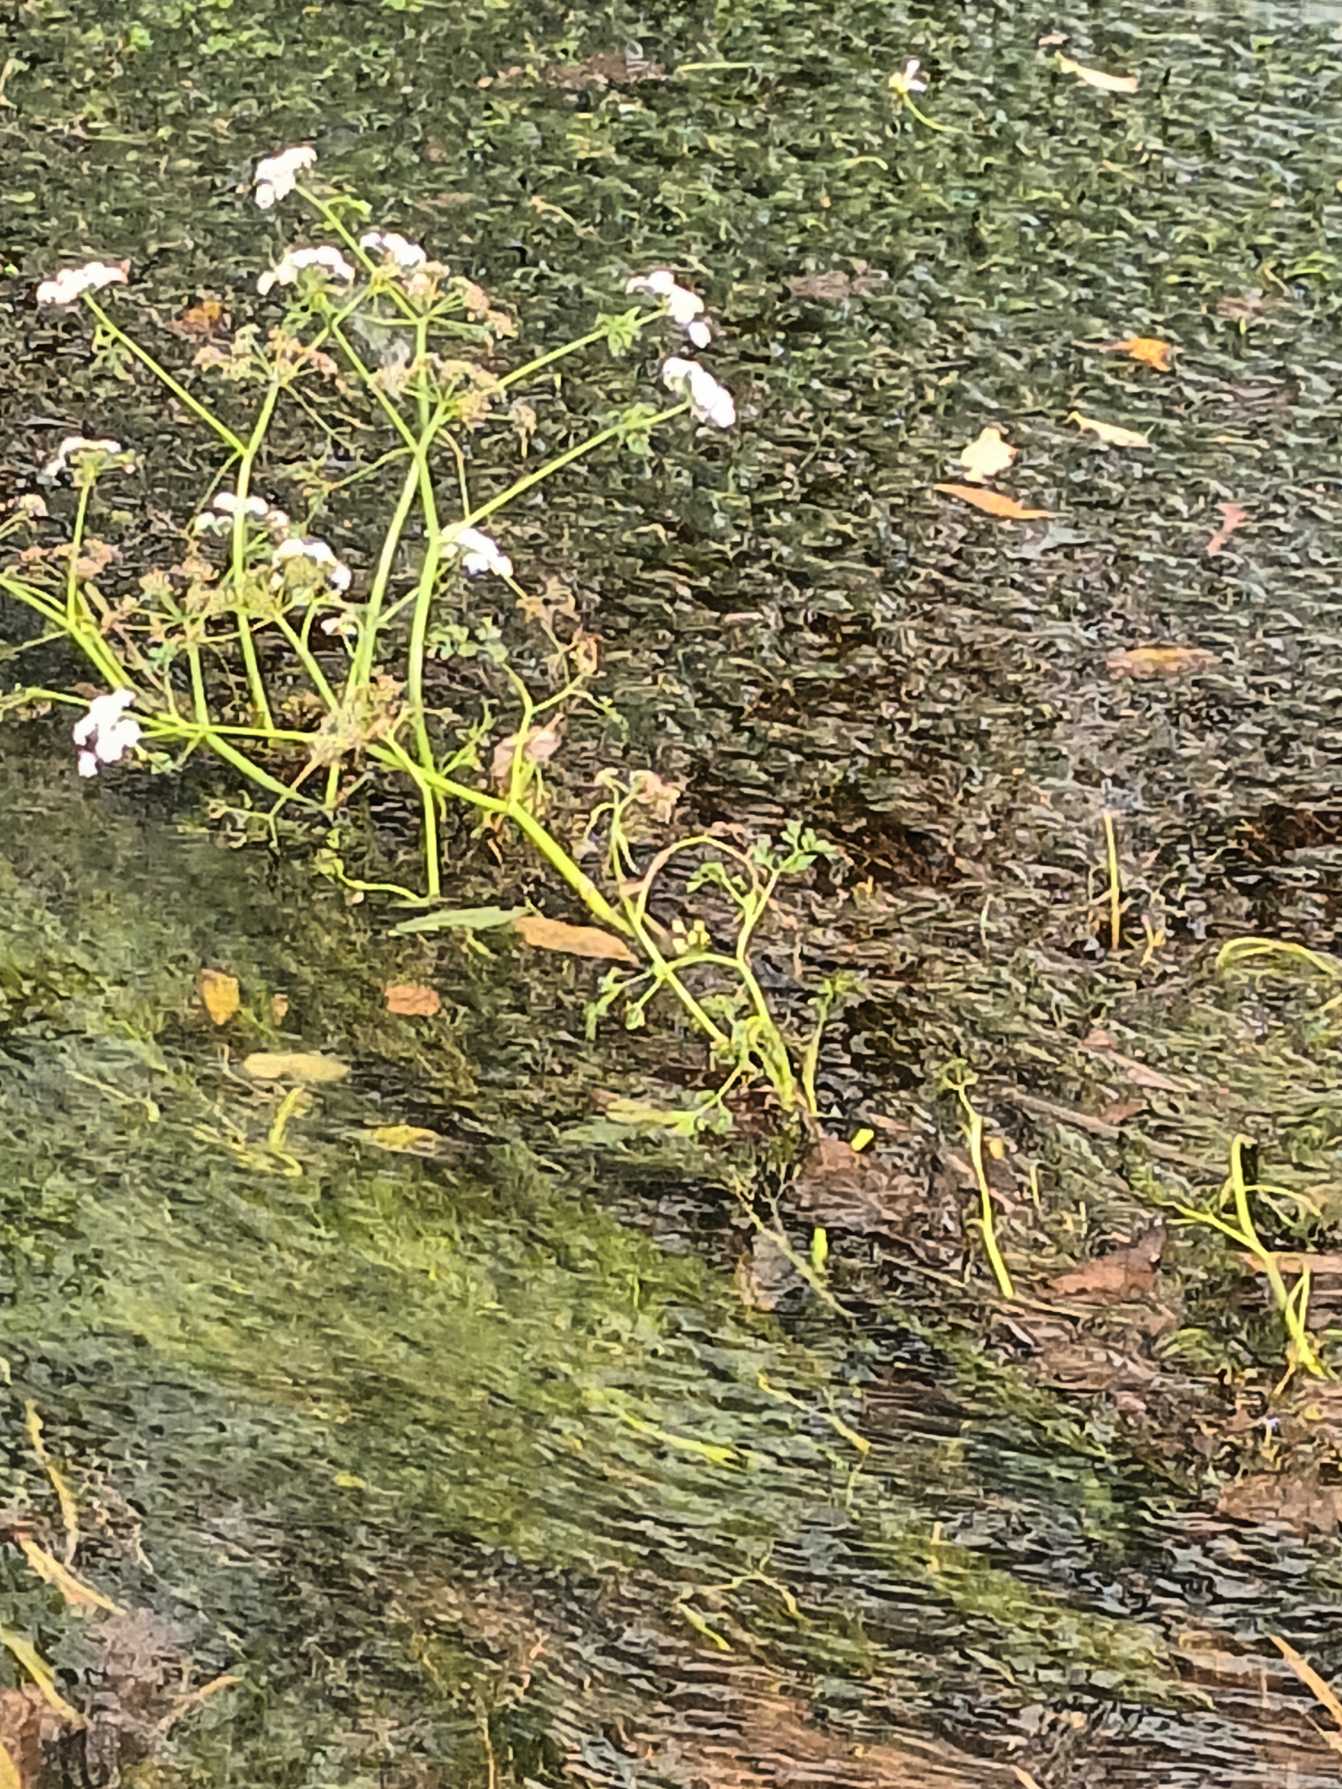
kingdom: Plantae
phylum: Tracheophyta
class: Magnoliopsida
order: Apiales
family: Apiaceae
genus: Oenanthe
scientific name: Oenanthe fluviatilis
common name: Flod-klaseskærm
